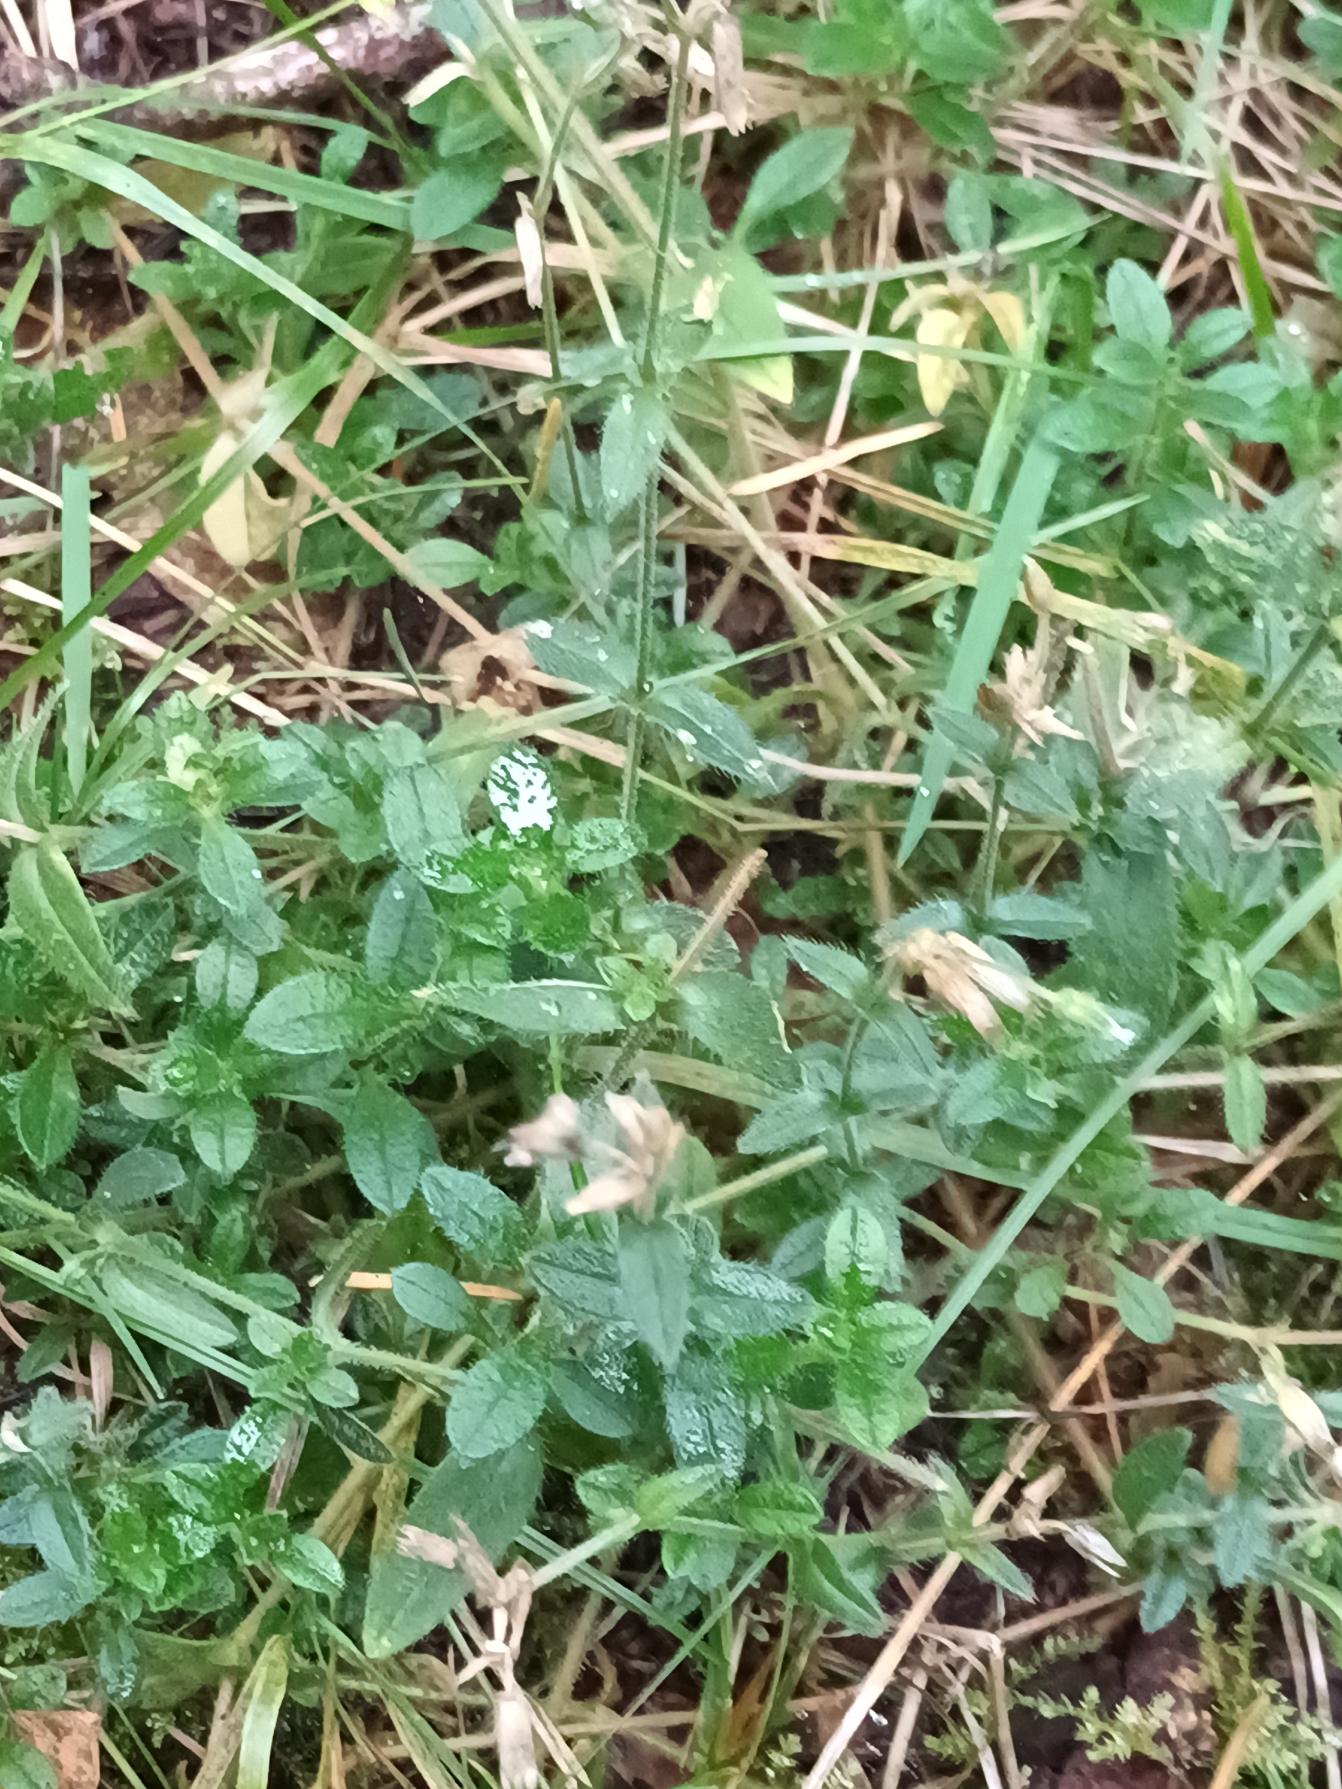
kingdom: Plantae
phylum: Tracheophyta
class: Magnoliopsida
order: Caryophyllales
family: Caryophyllaceae
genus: Cerastium
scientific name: Cerastium fontanum
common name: Almindelig hønsetarm
